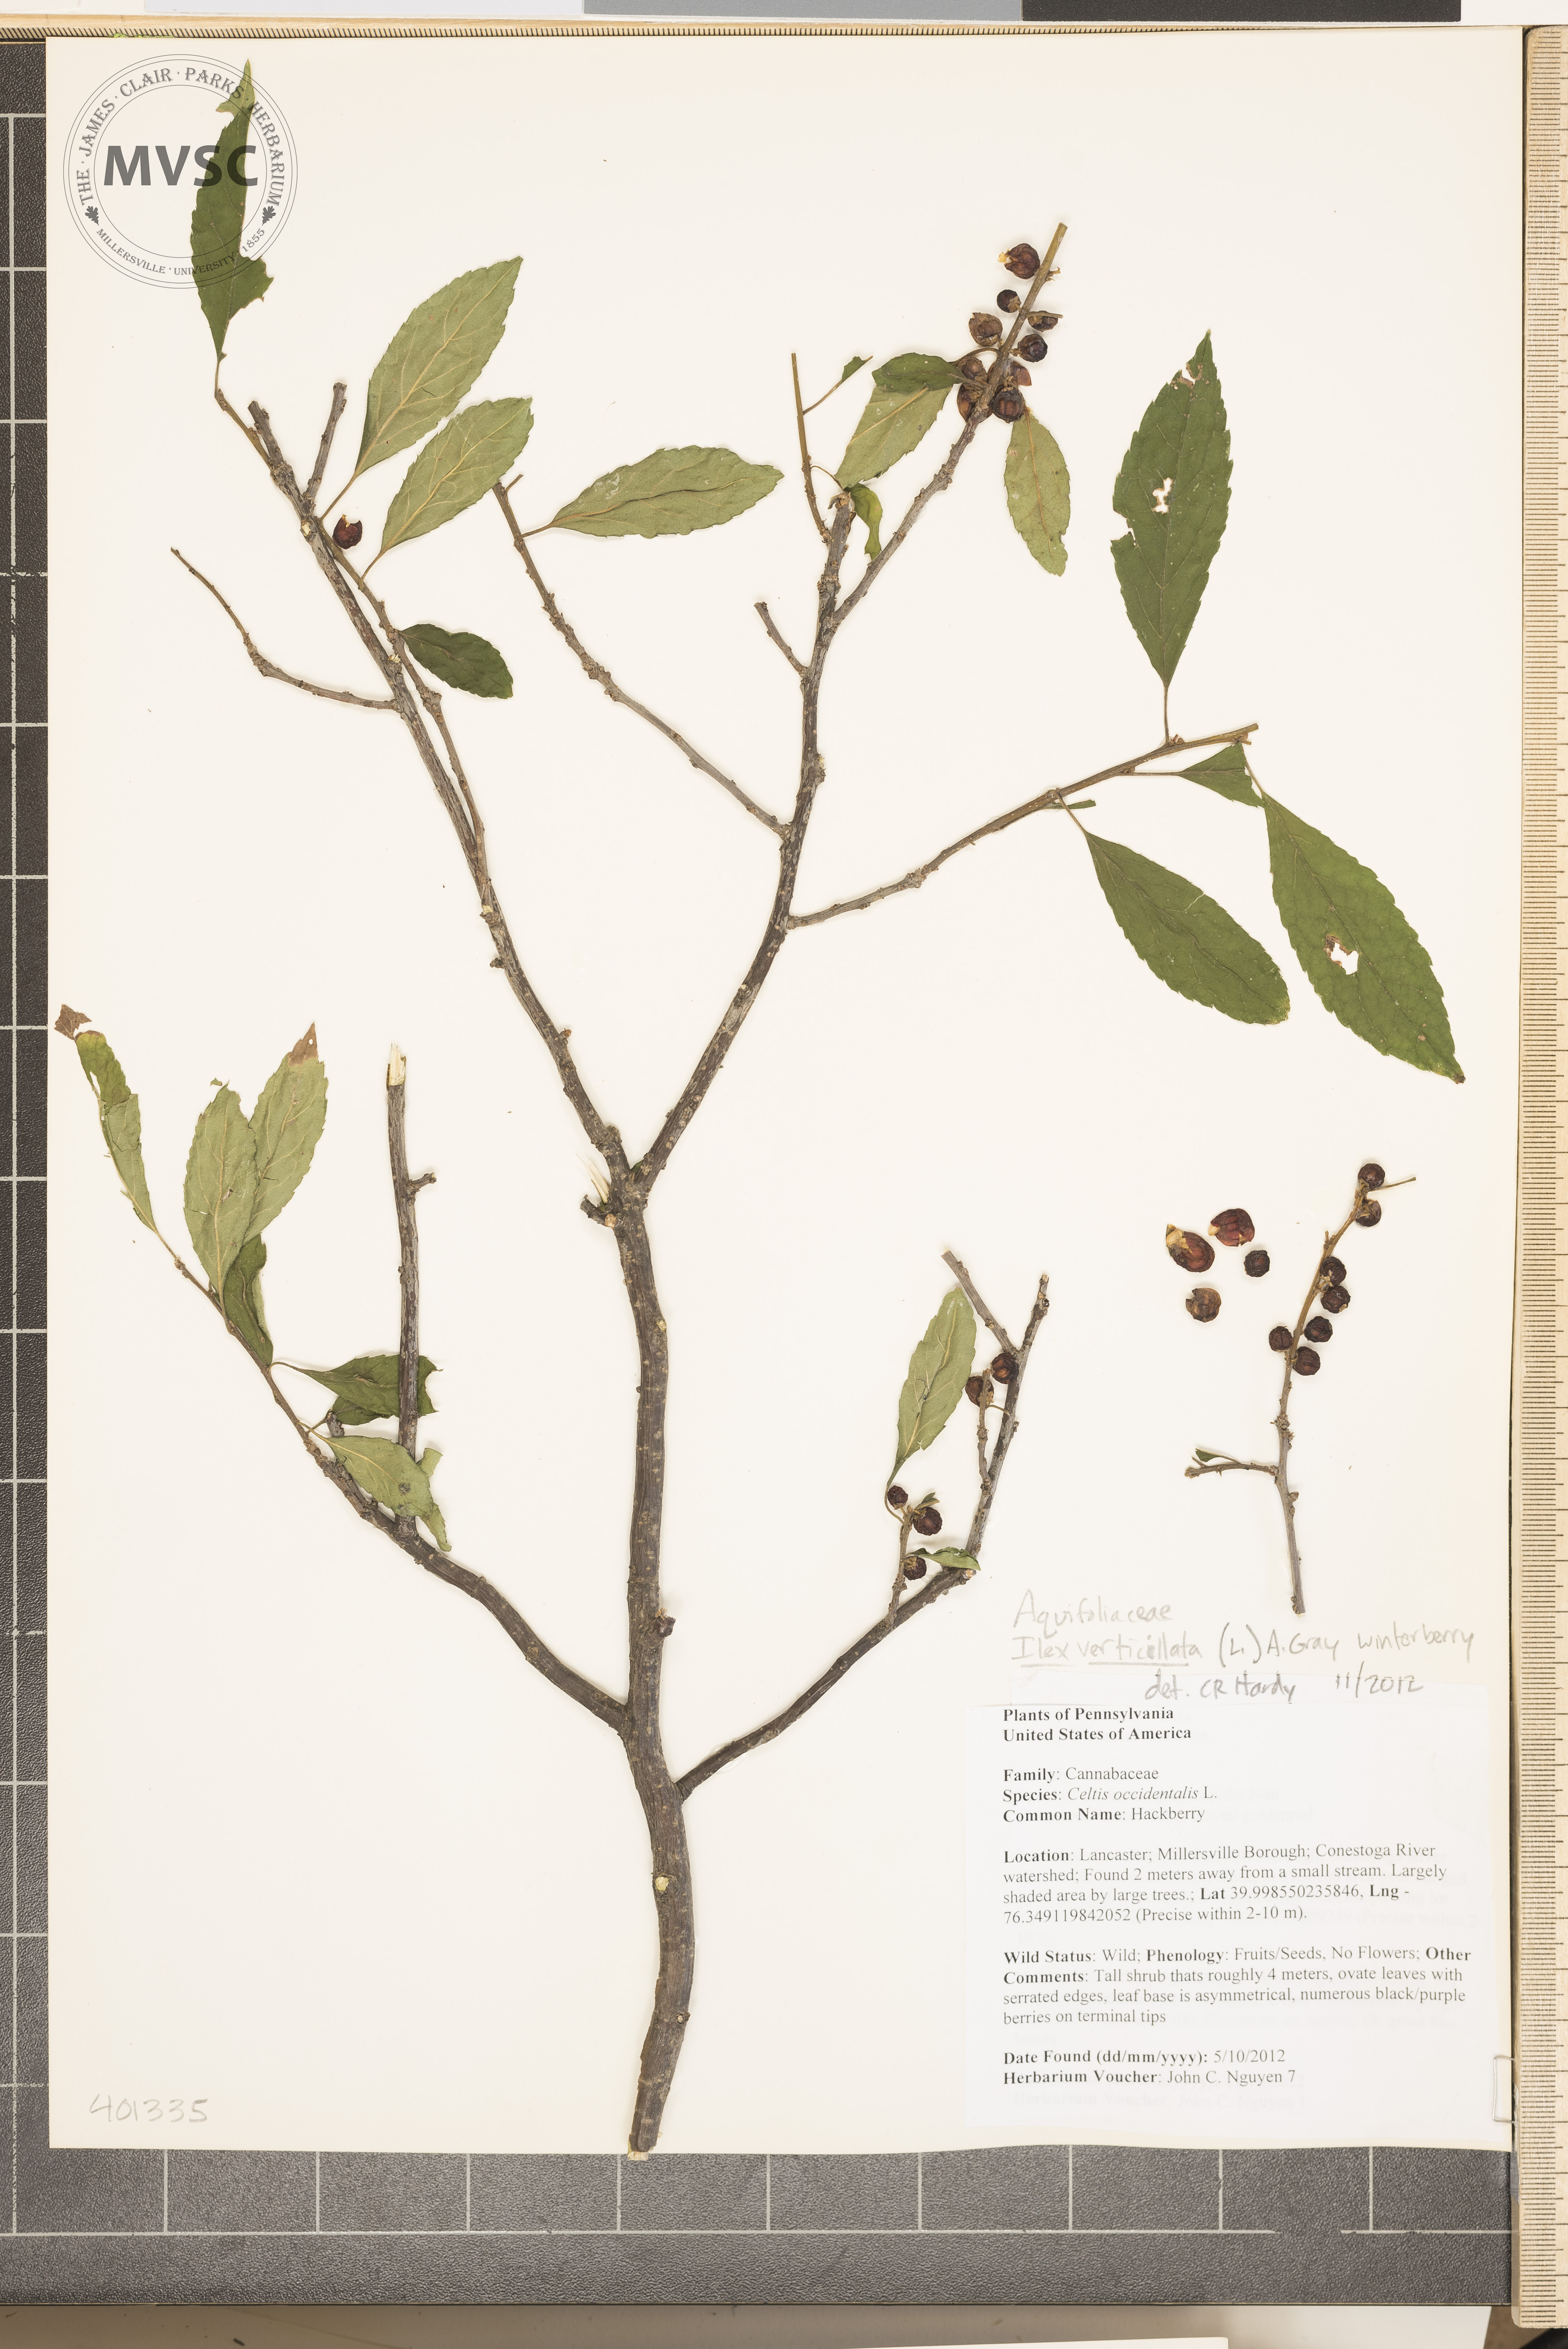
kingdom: Plantae
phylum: Tracheophyta
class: Magnoliopsida
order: Aquifoliales
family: Aquifoliaceae
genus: Ilex
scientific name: Ilex verticillata
